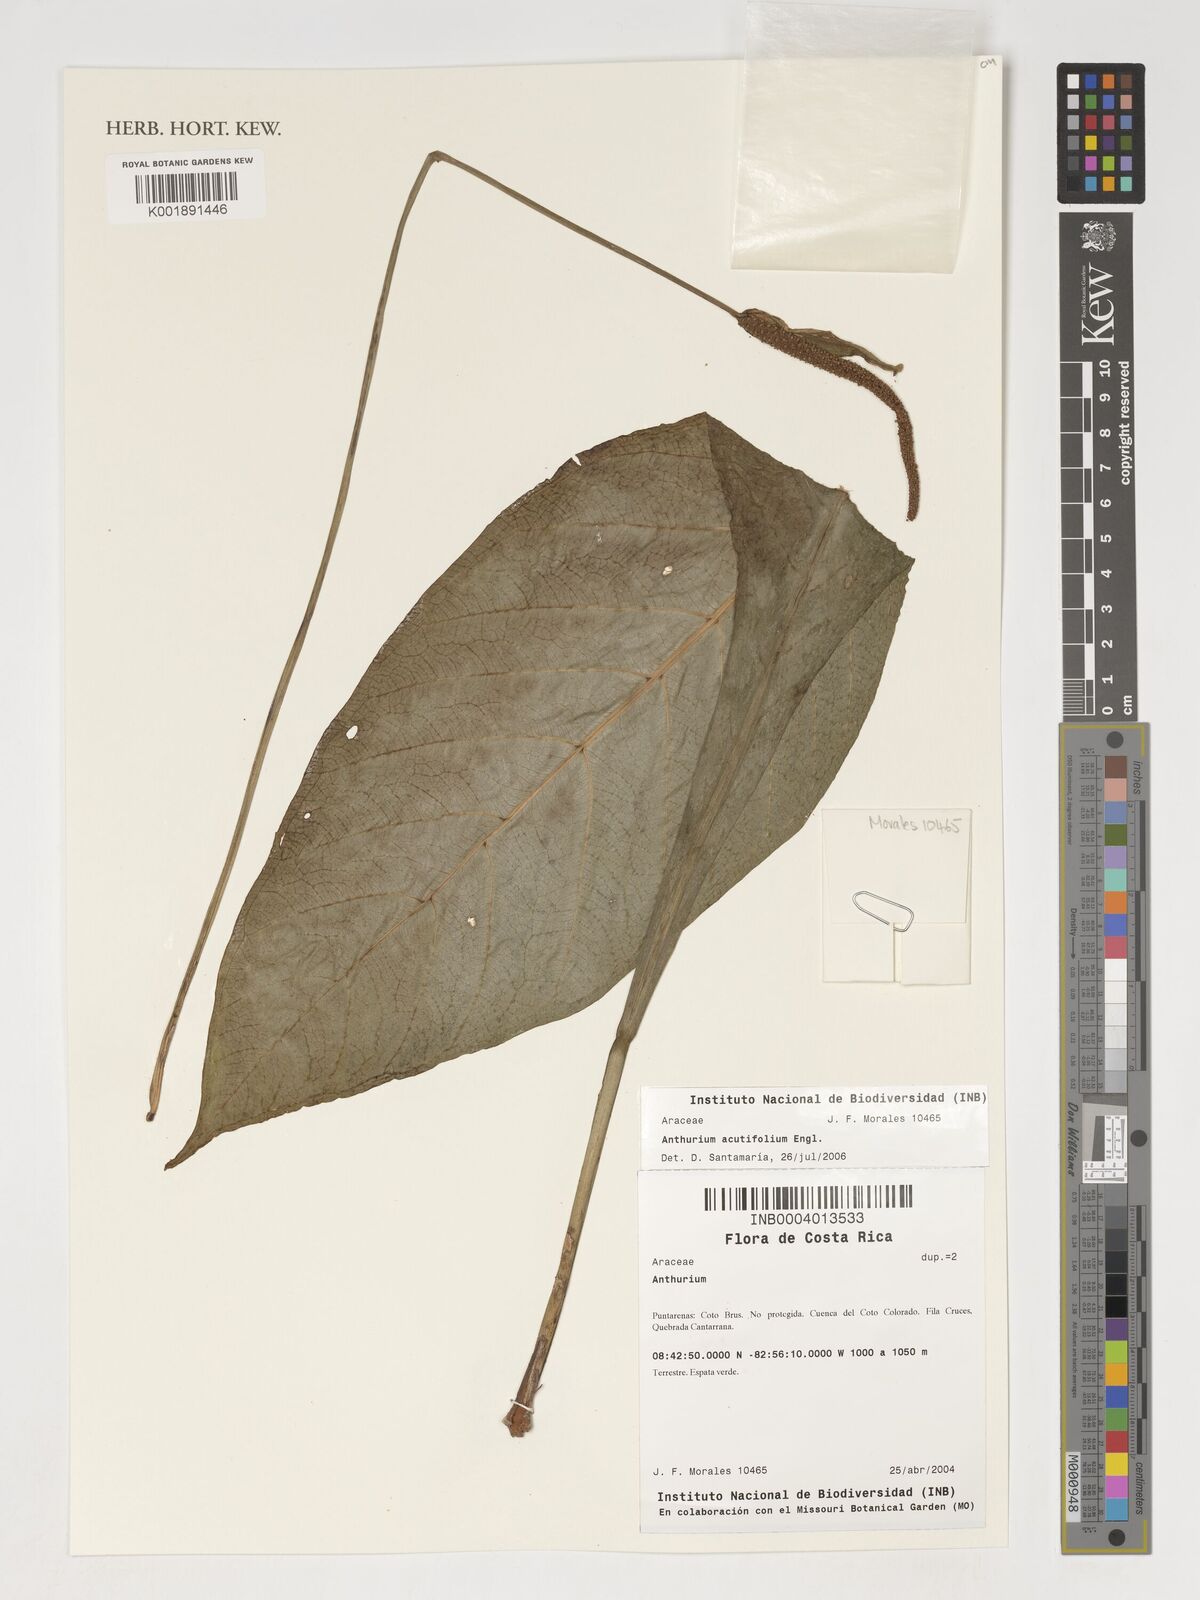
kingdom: Plantae
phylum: Tracheophyta
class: Liliopsida
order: Alismatales
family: Araceae
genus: Anthurium
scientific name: Anthurium acutifolium
